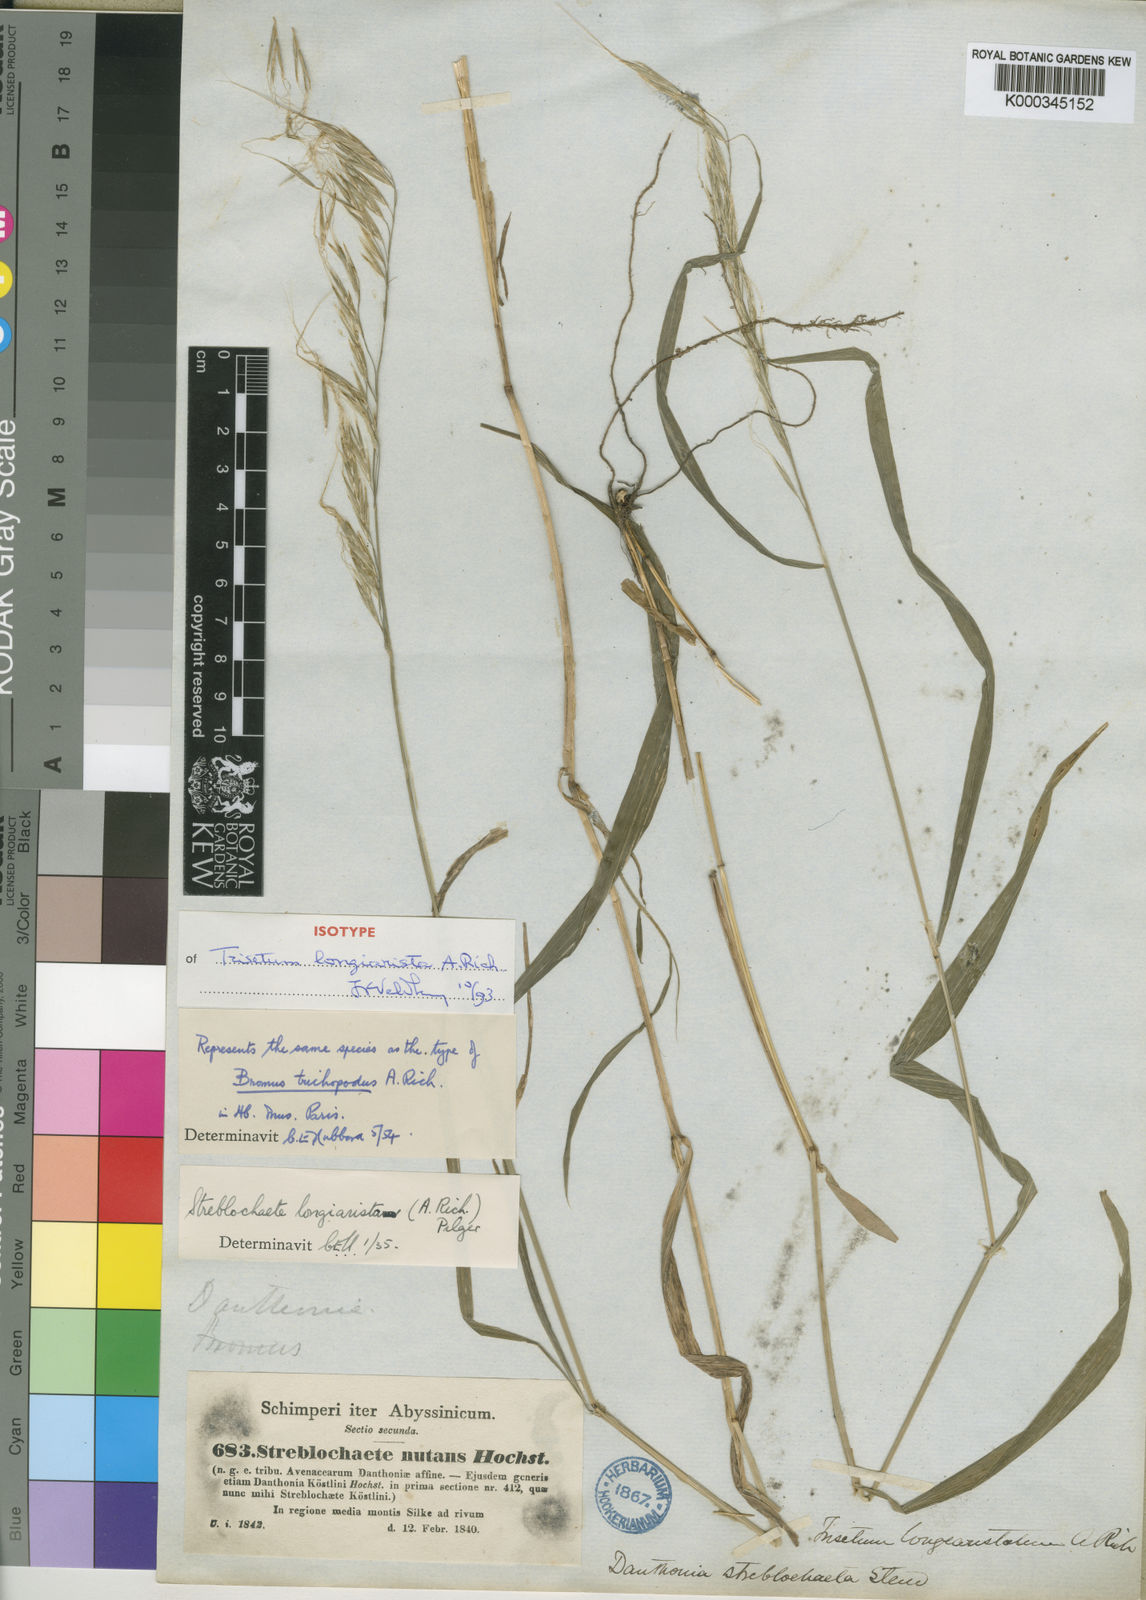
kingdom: Plantae
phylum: Tracheophyta
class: Liliopsida
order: Poales
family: Poaceae
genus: Koordersiochloa
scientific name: Koordersiochloa longiarista
